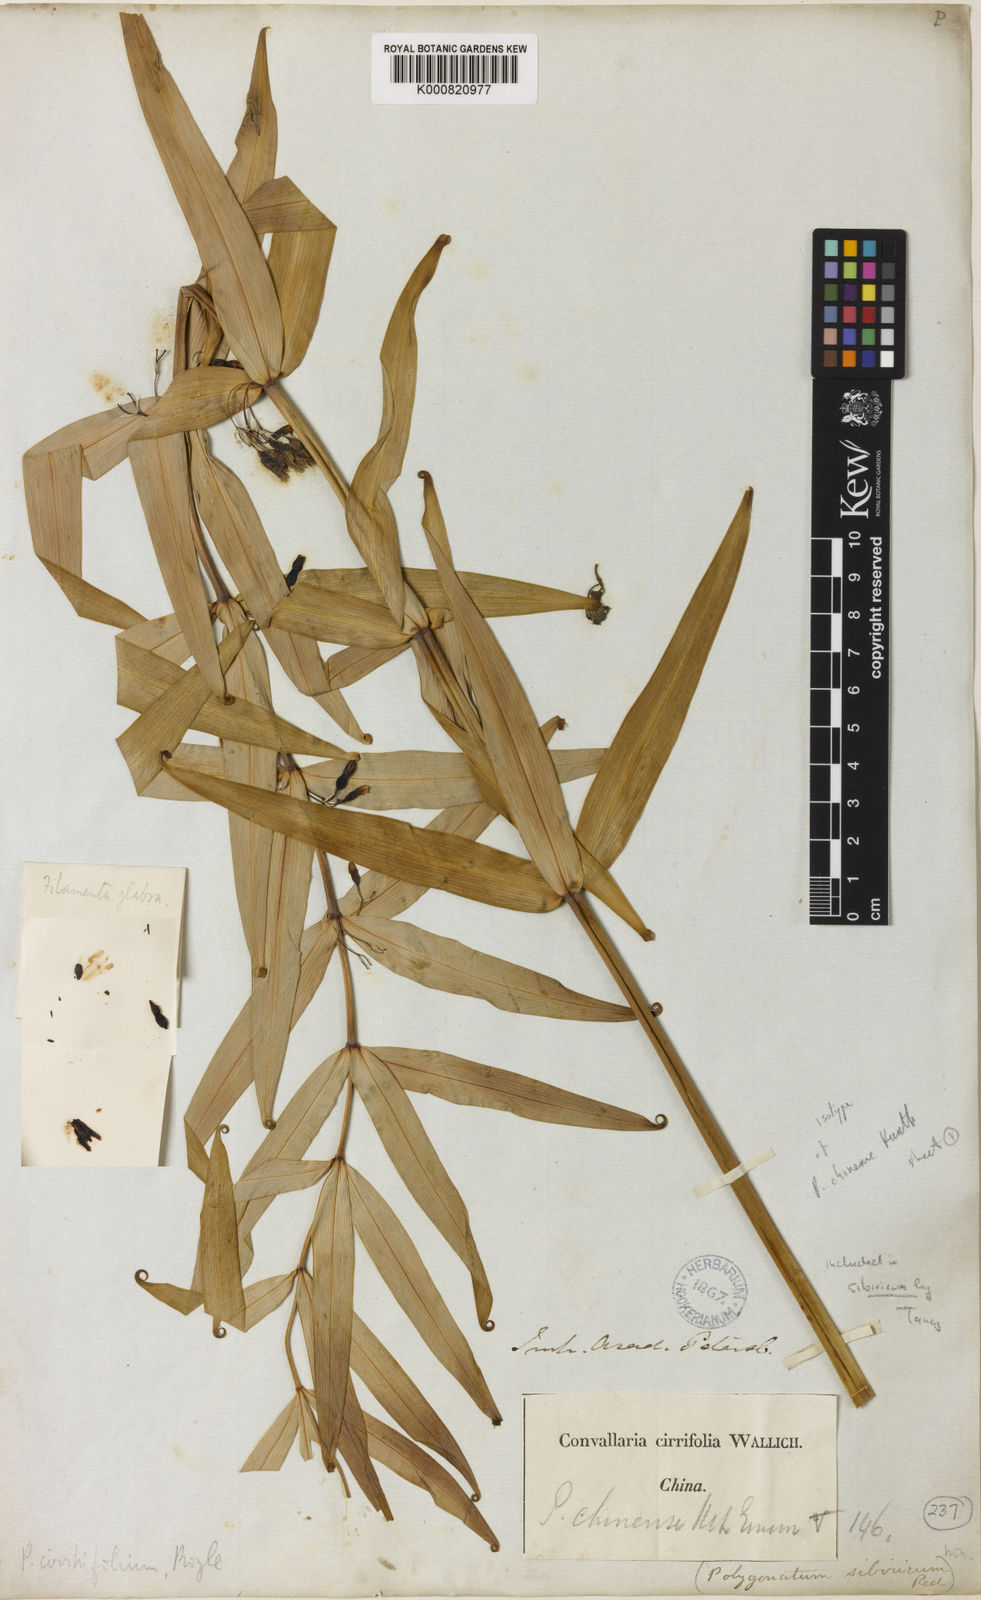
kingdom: Plantae
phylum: Tracheophyta
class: Liliopsida
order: Asparagales
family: Asparagaceae
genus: Polygonatum
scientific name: Polygonatum
